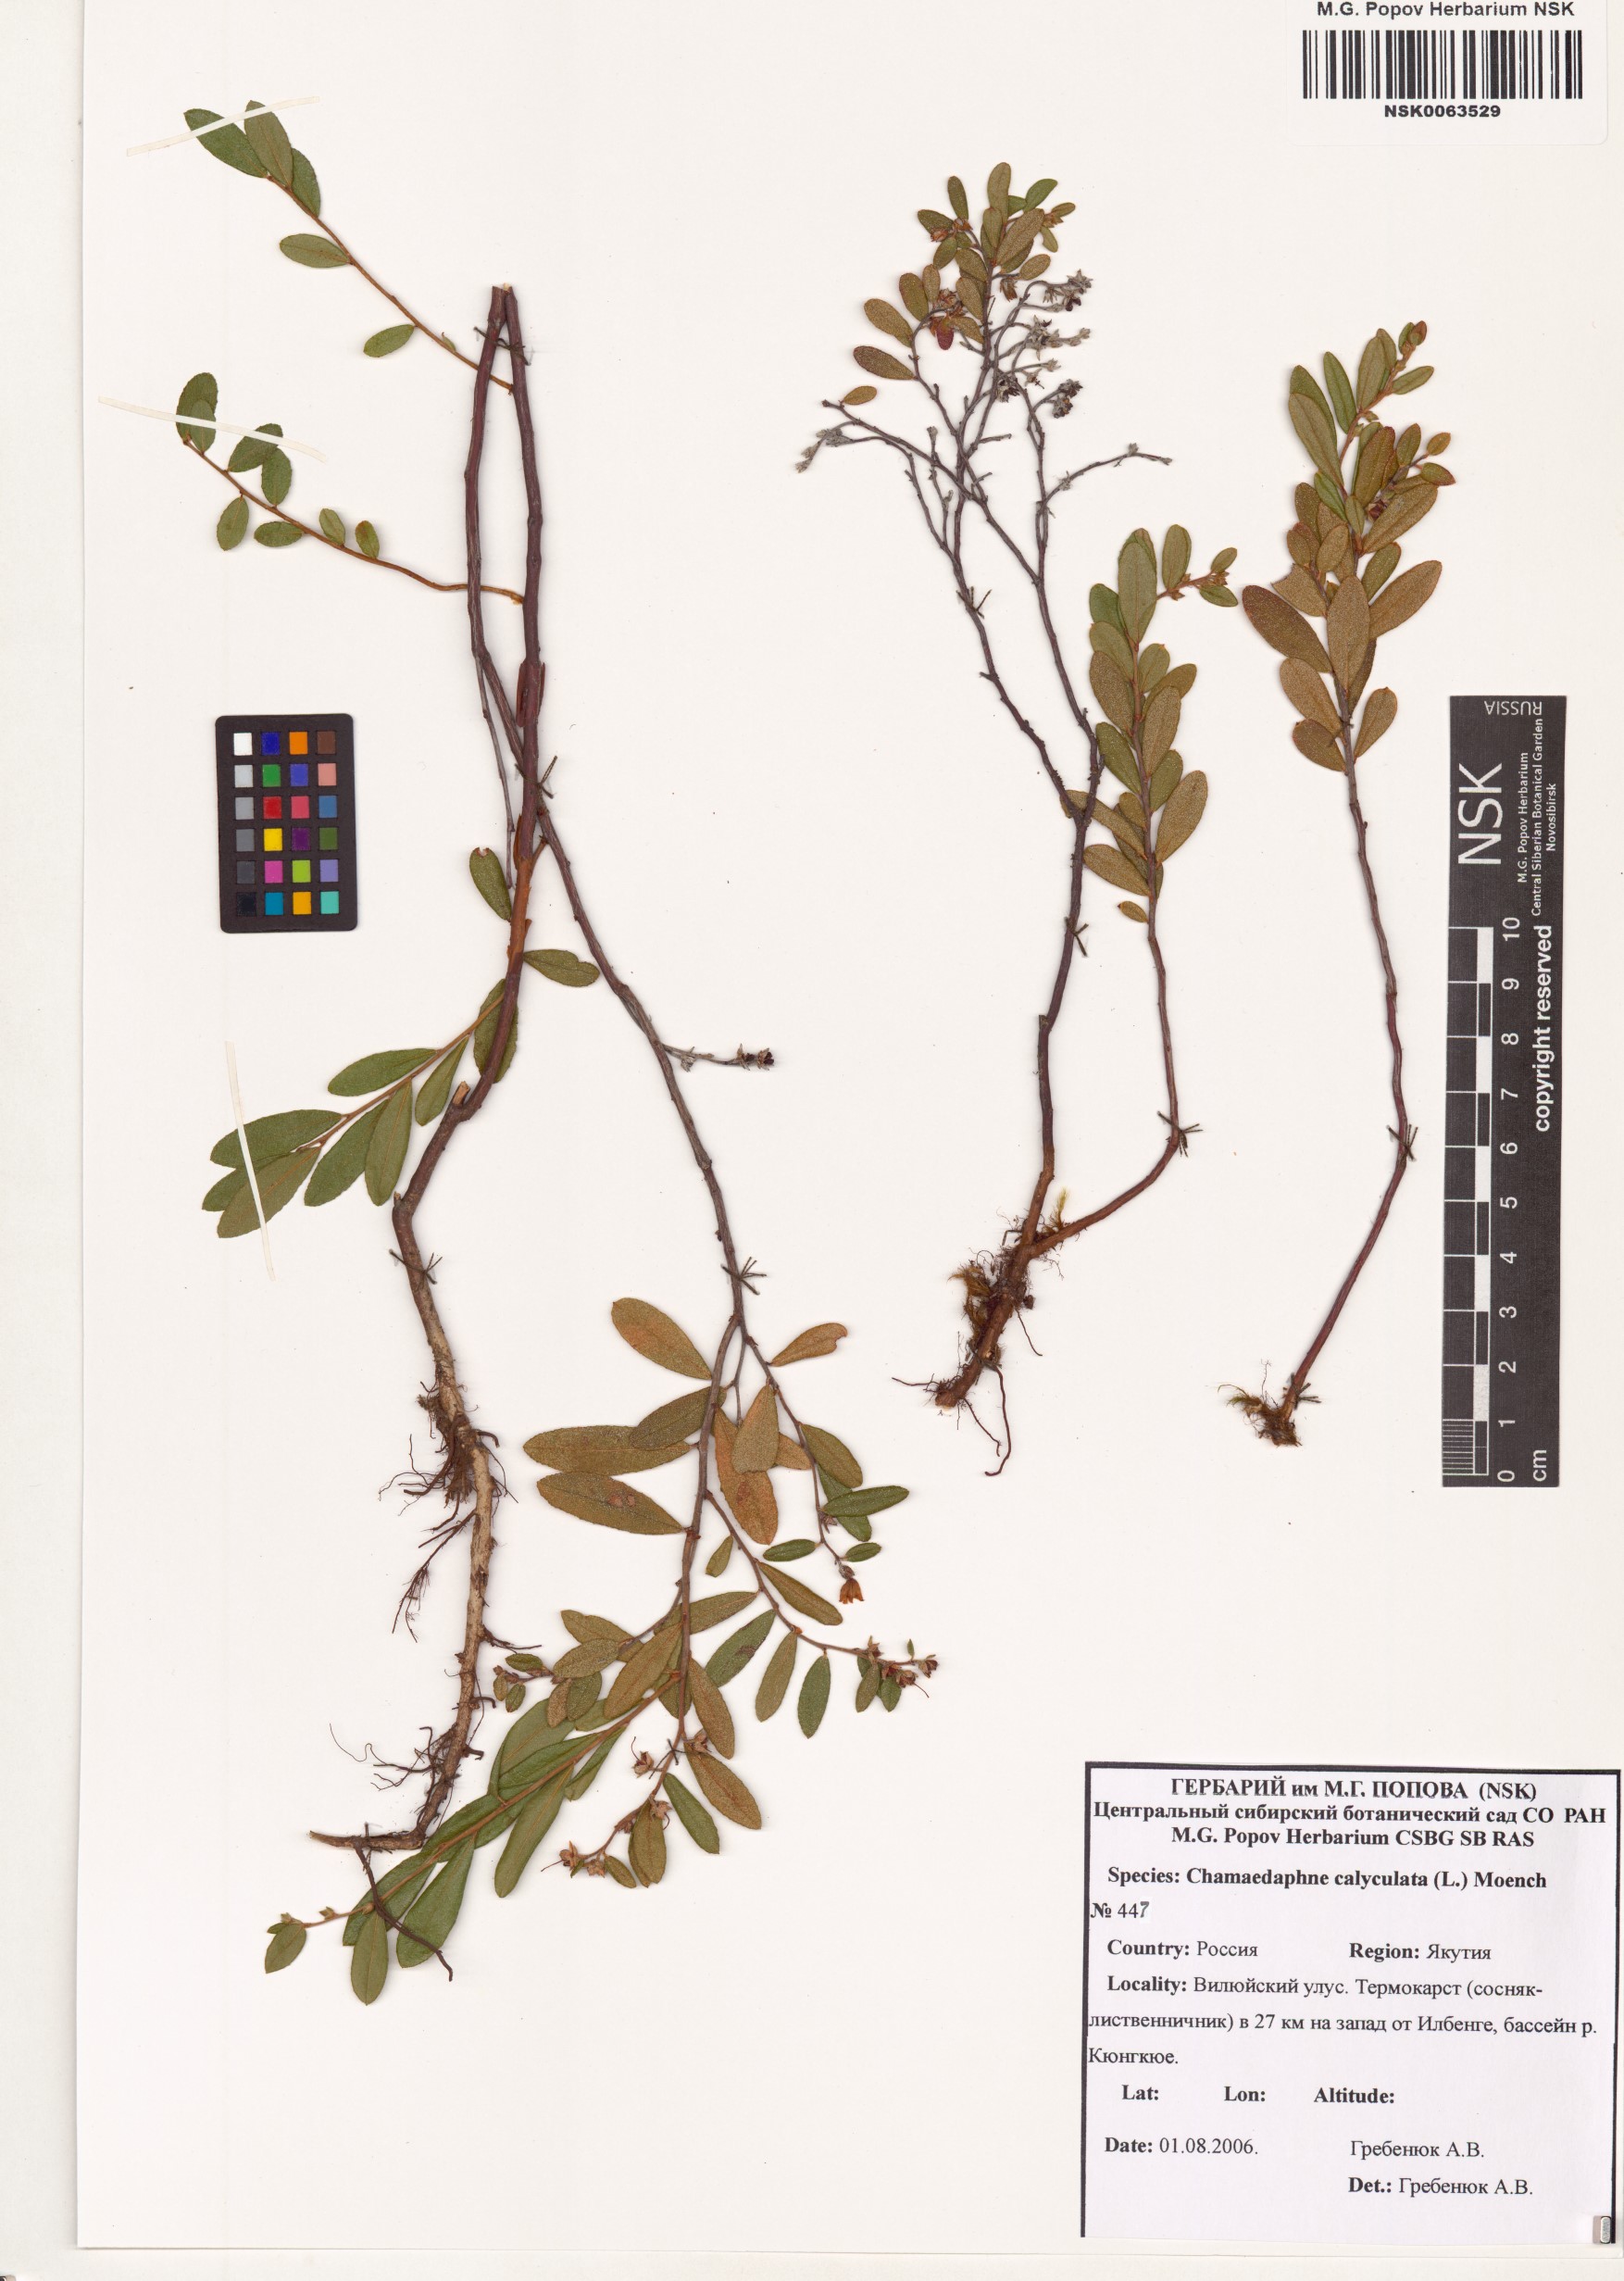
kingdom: Plantae
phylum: Tracheophyta
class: Magnoliopsida
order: Ericales
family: Ericaceae
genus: Chamaedaphne
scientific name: Chamaedaphne calyculata
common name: Leatherleaf
